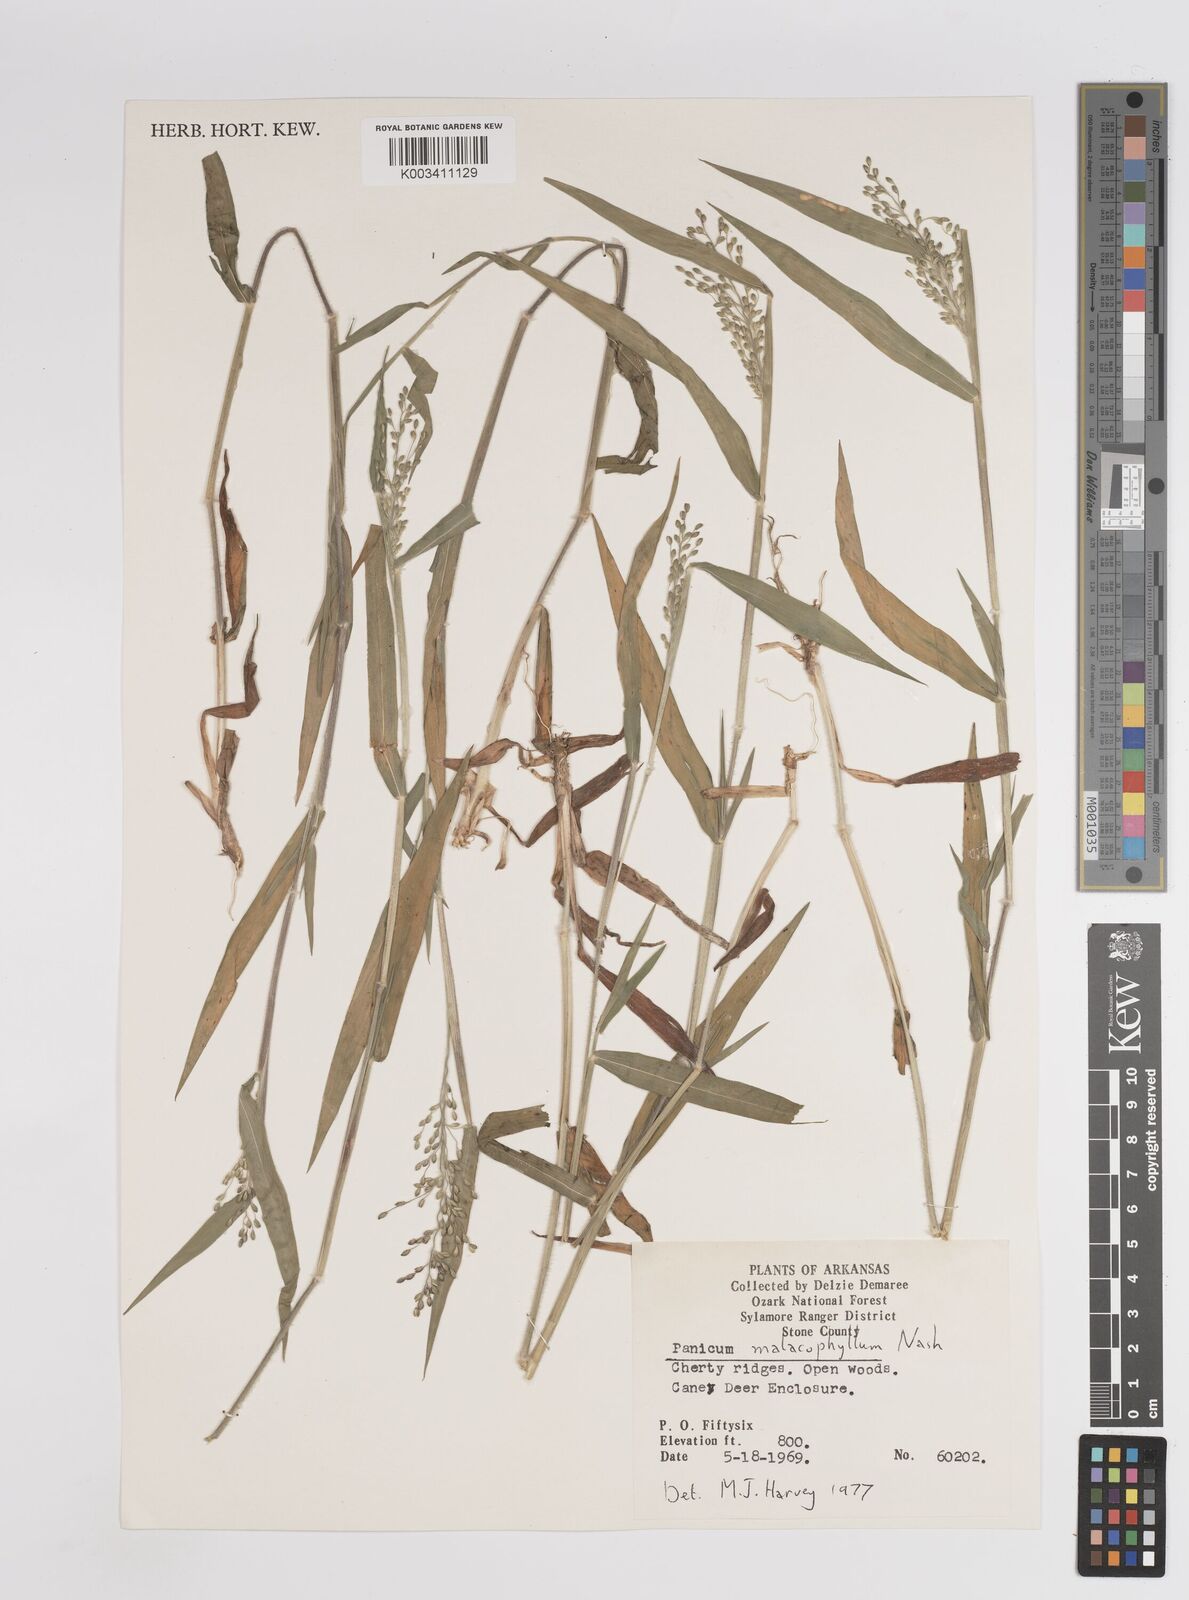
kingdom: Plantae
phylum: Tracheophyta
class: Liliopsida
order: Poales
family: Poaceae
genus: Dichanthelium
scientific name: Dichanthelium malacophyllum
